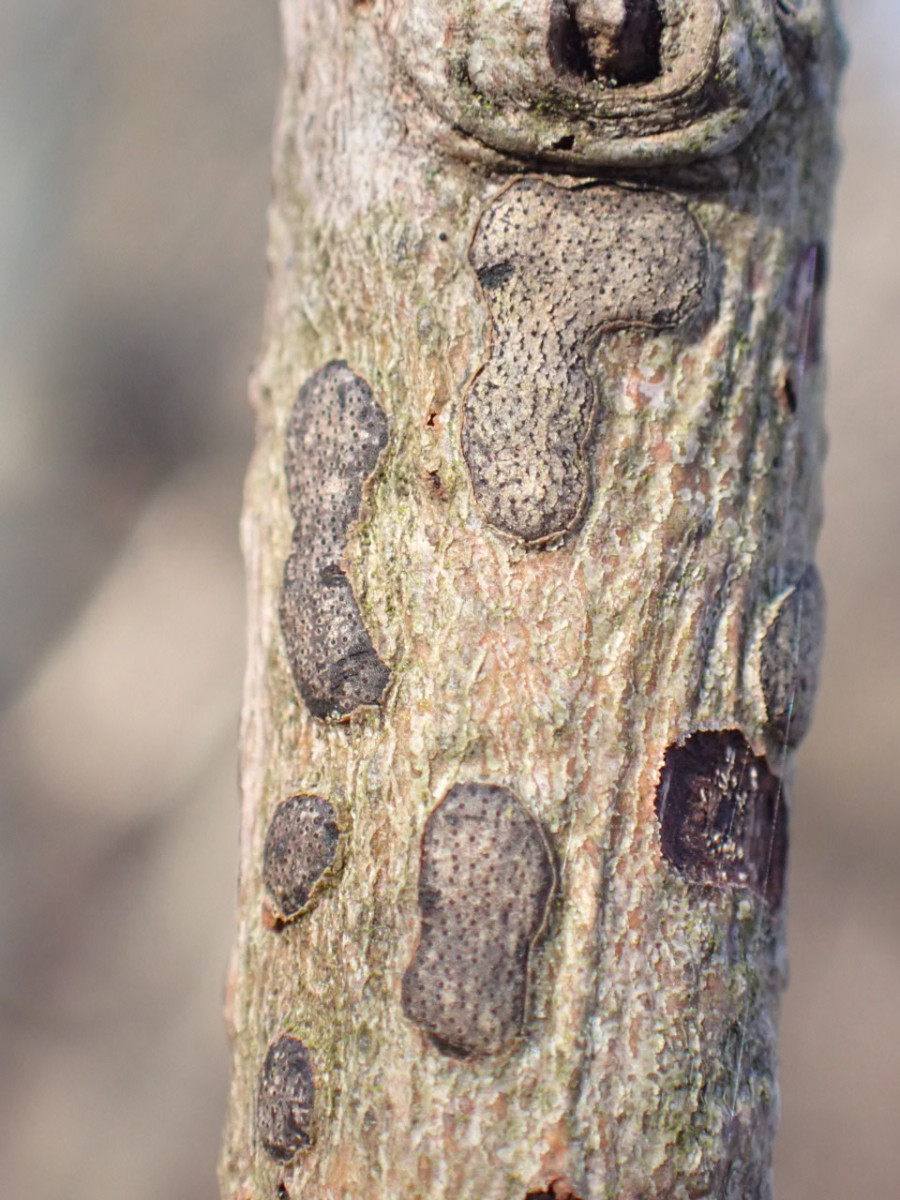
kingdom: Fungi
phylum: Ascomycota
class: Sordariomycetes
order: Xylariales
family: Diatrypaceae
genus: Diatrype
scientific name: Diatrype bullata
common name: pile-kulskorpe
